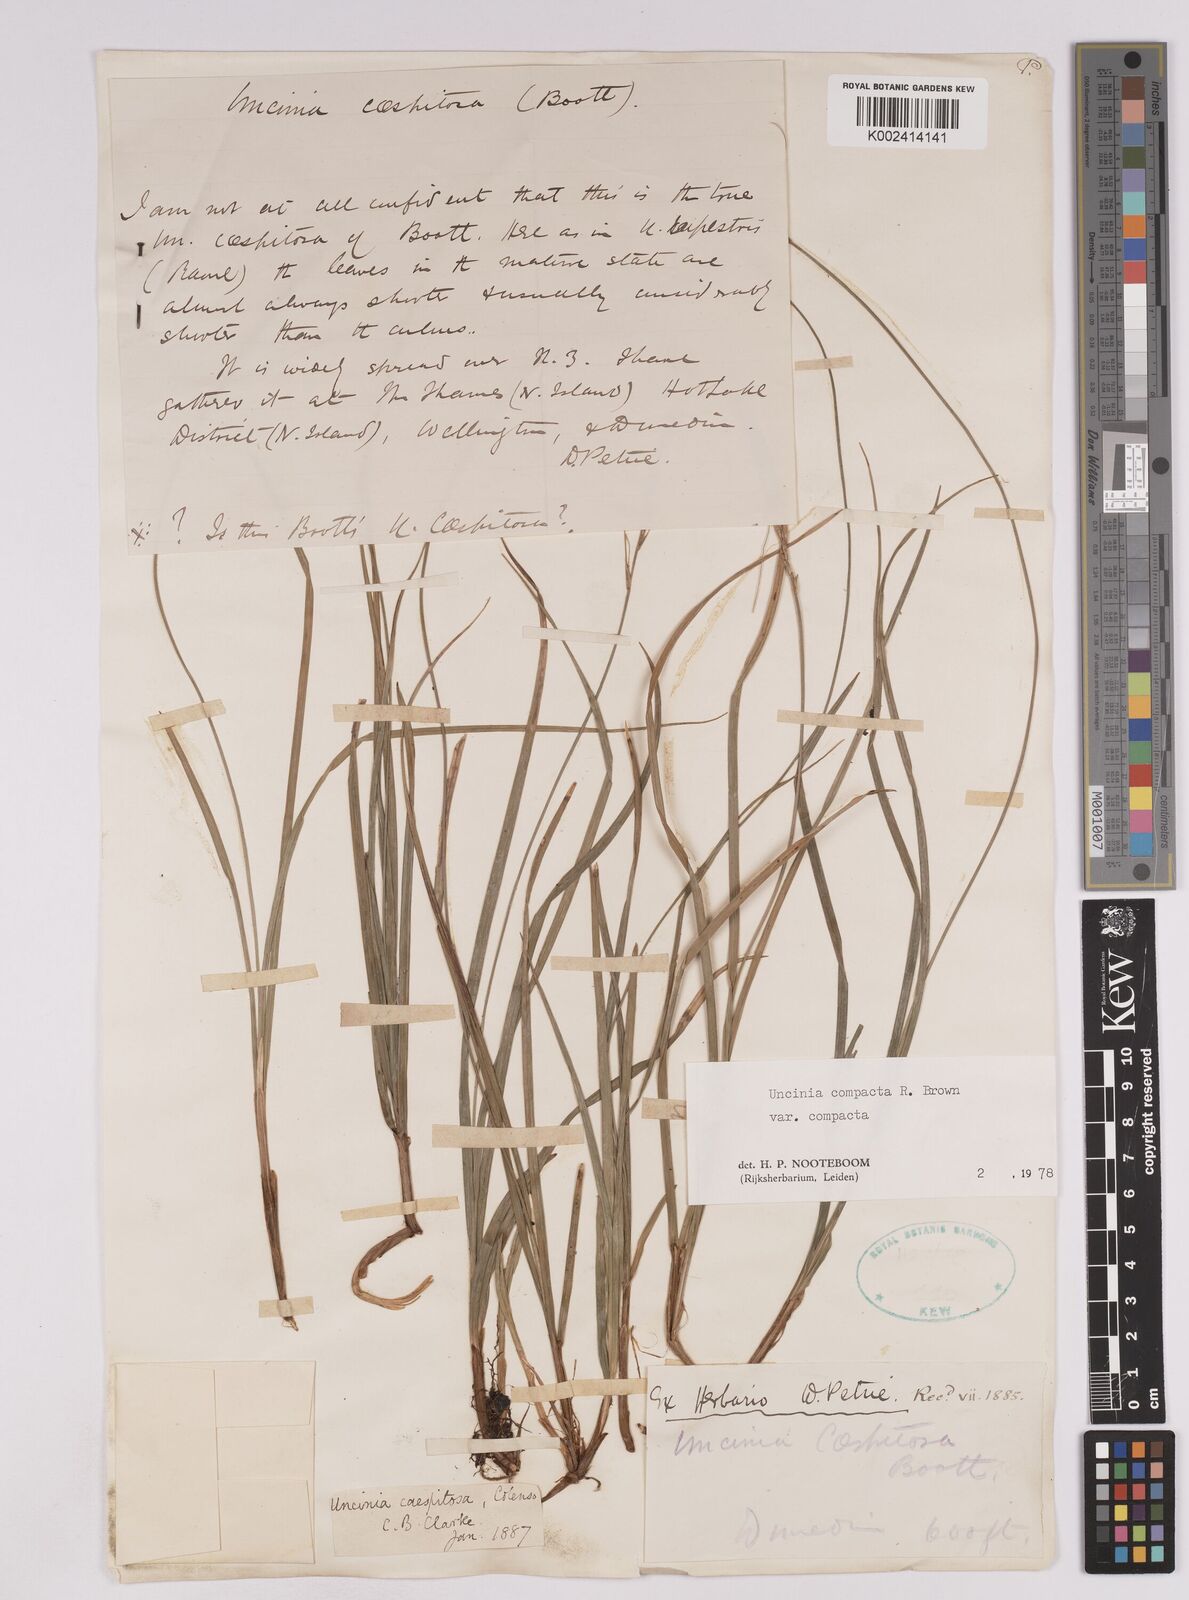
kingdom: Plantae
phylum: Tracheophyta
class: Liliopsida
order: Poales
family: Cyperaceae
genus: Carex
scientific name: Carex austrocompacta
